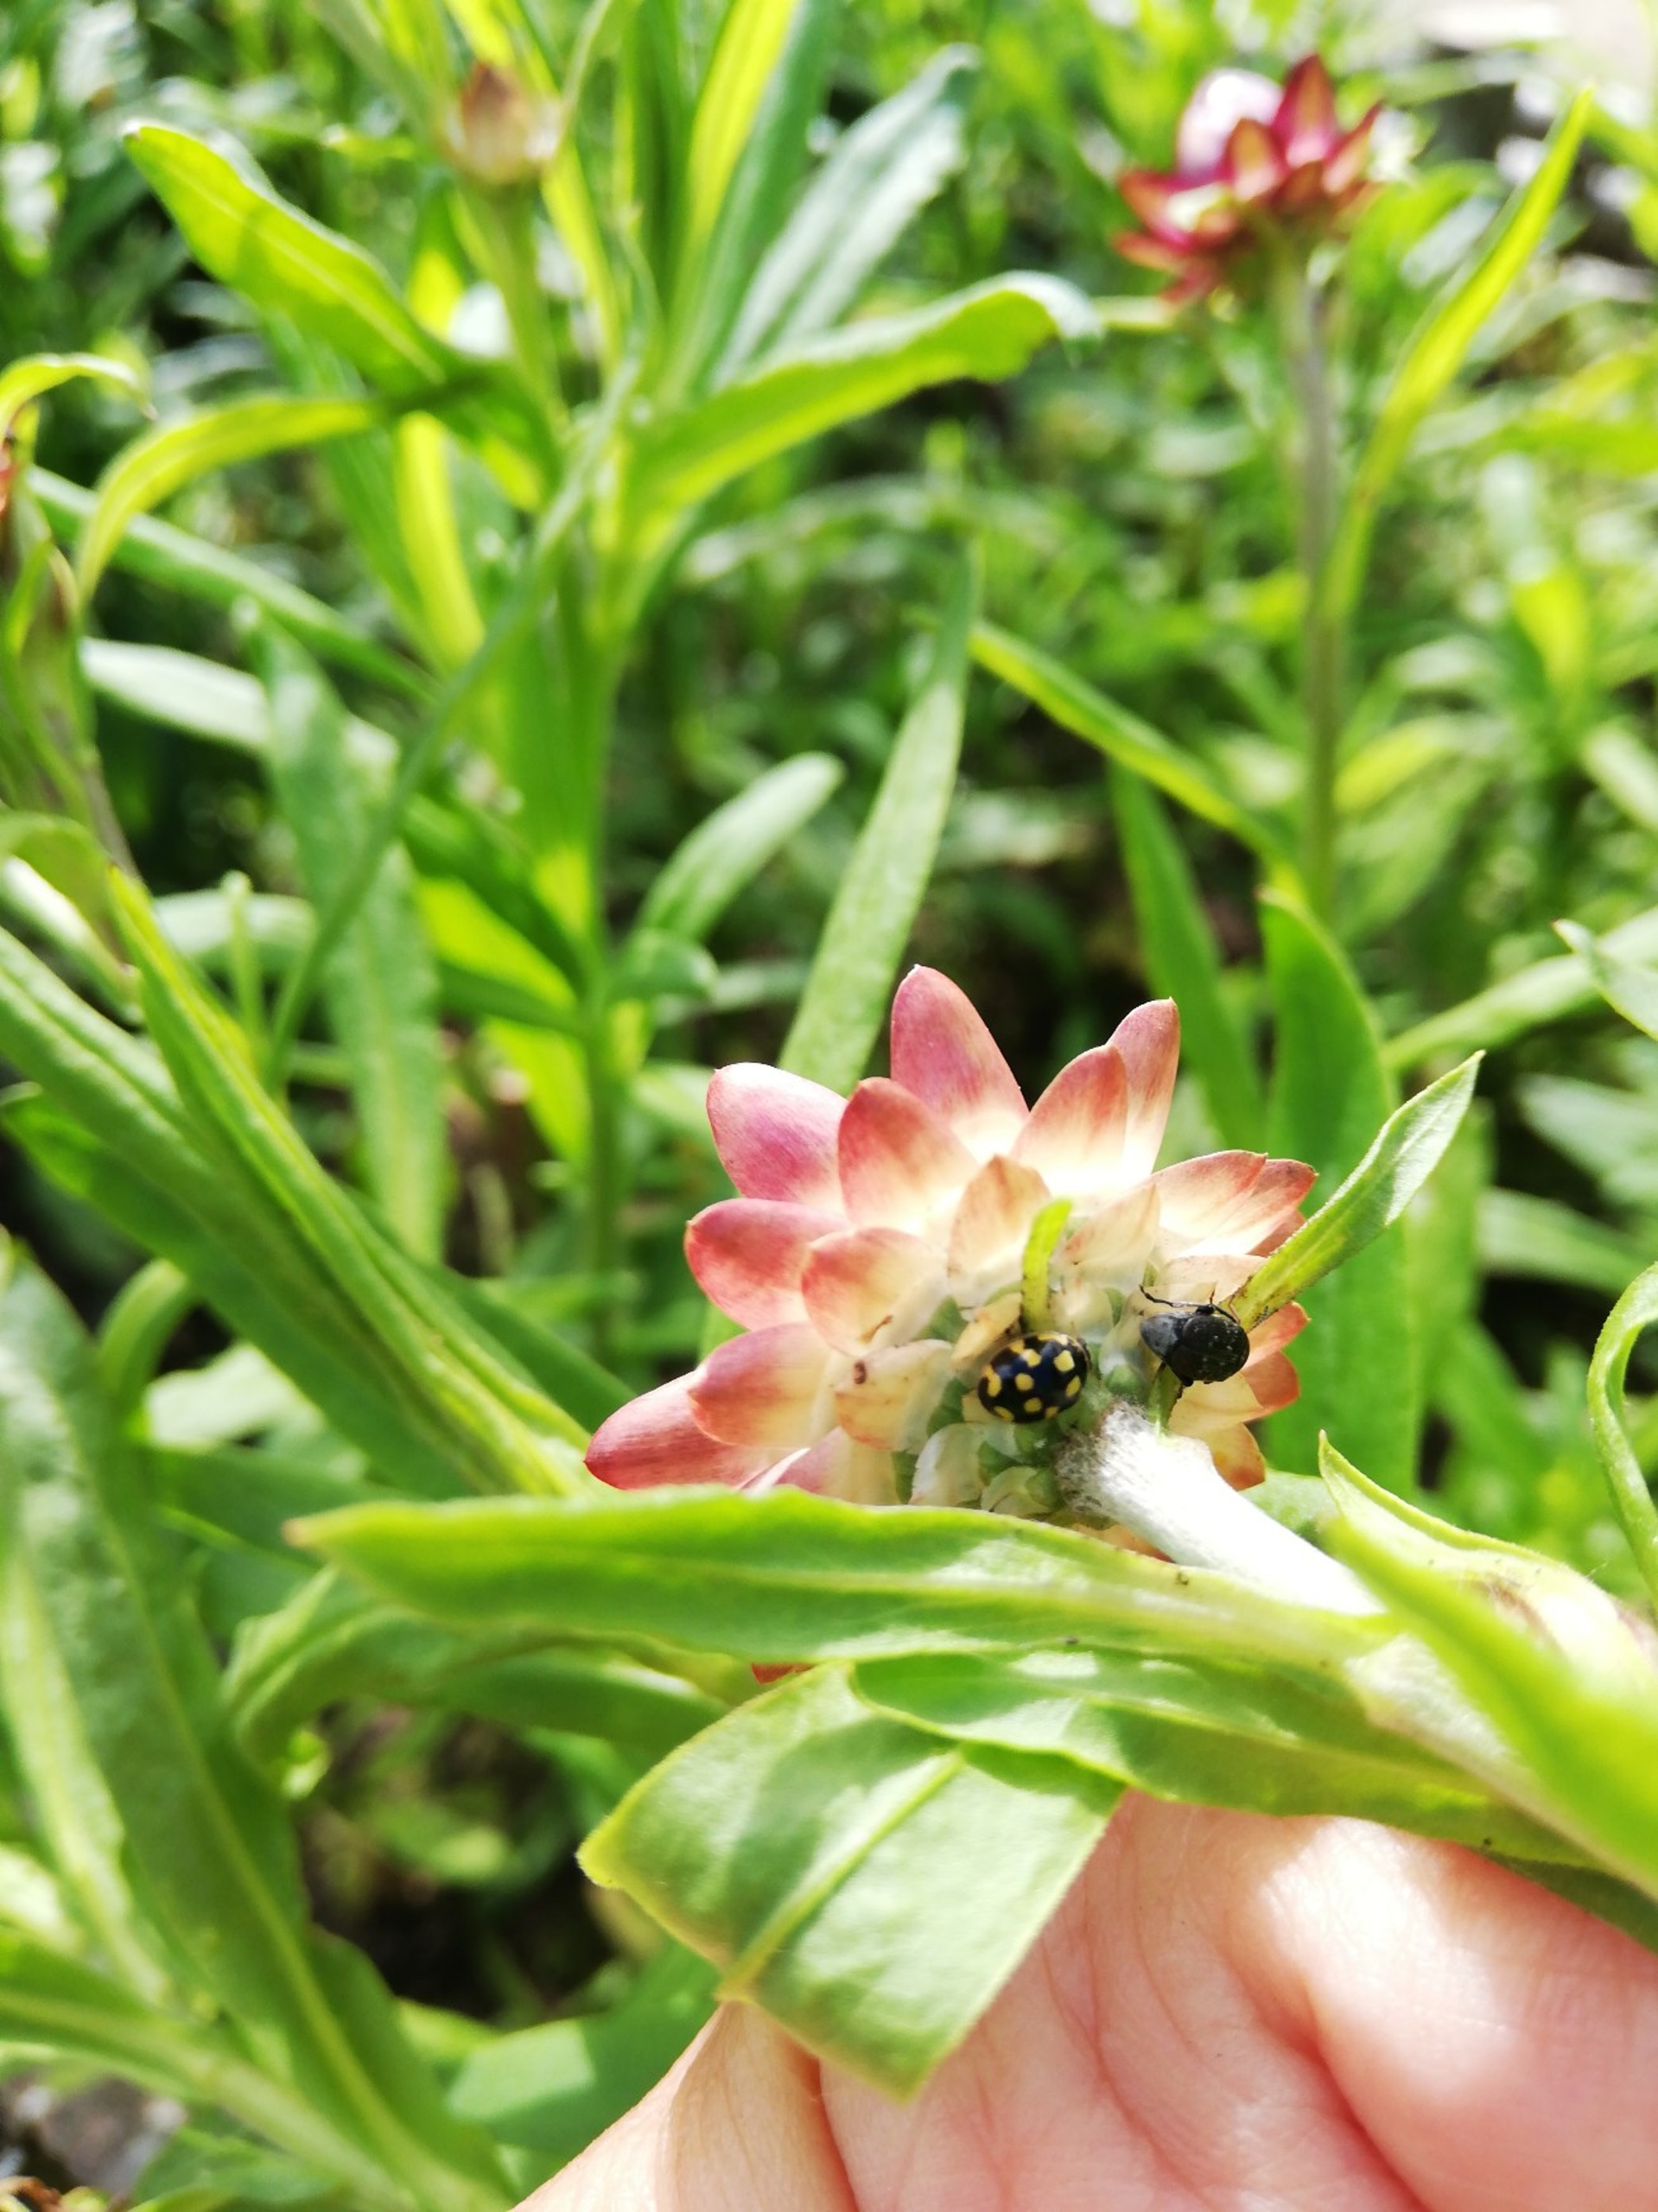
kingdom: Animalia
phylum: Arthropoda
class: Insecta
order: Coleoptera
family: Coccinellidae
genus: Propylaea
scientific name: Propylaea quatuordecimpunctata
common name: Skakbræt
